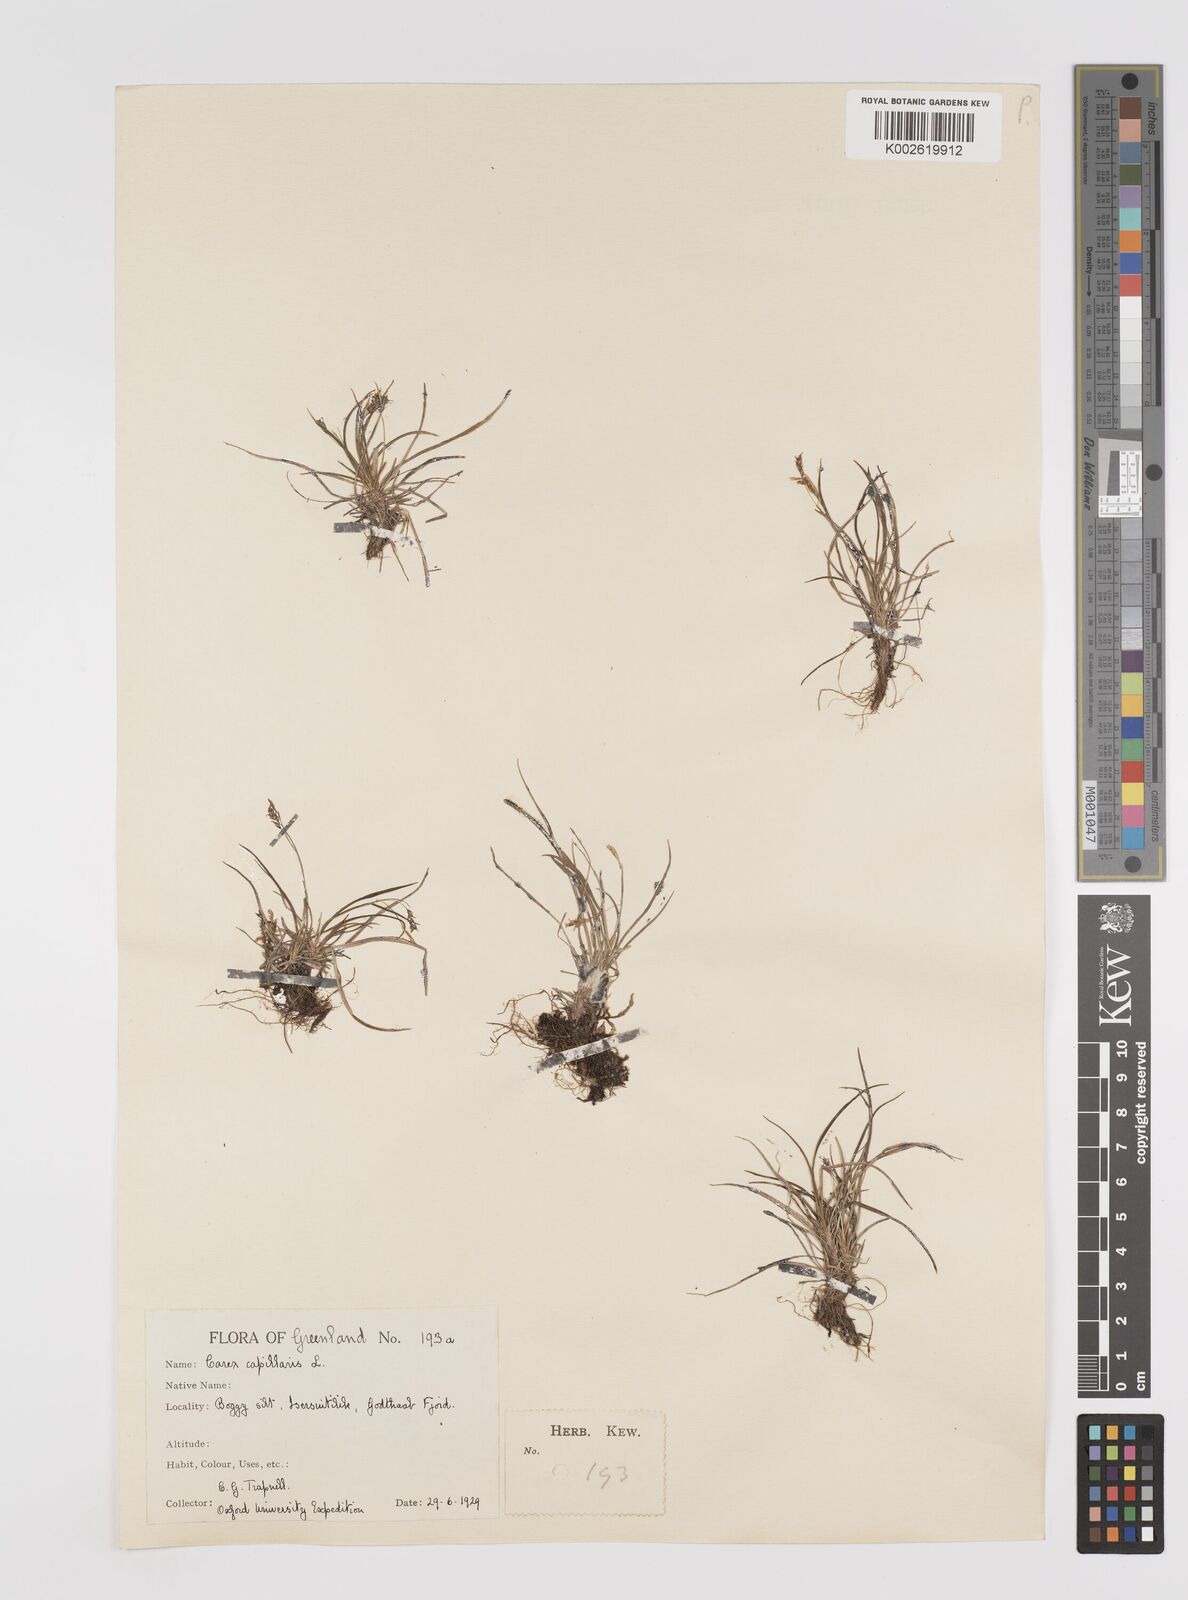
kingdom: Plantae
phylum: Tracheophyta
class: Liliopsida
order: Poales
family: Cyperaceae
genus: Carex
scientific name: Carex capillaris
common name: Hair sedge
